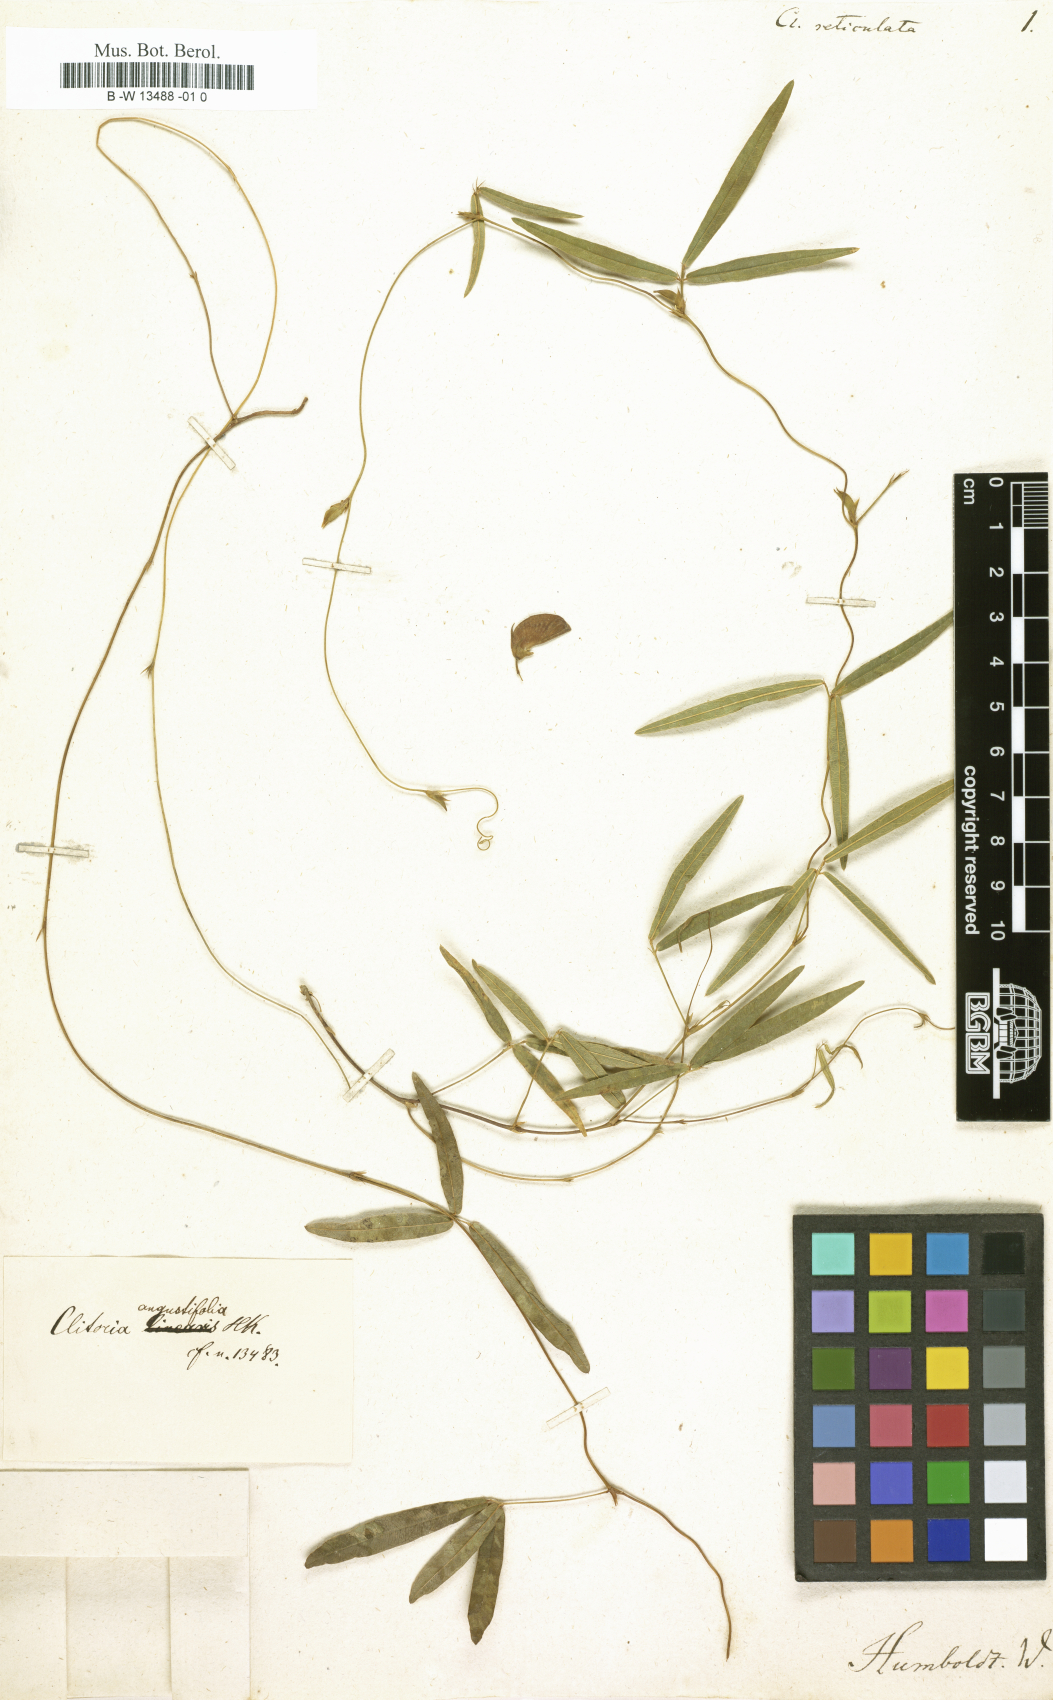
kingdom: Plantae
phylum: Tracheophyta
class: Magnoliopsida
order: Fabales
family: Fabaceae
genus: Clitoria
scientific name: Clitoria
